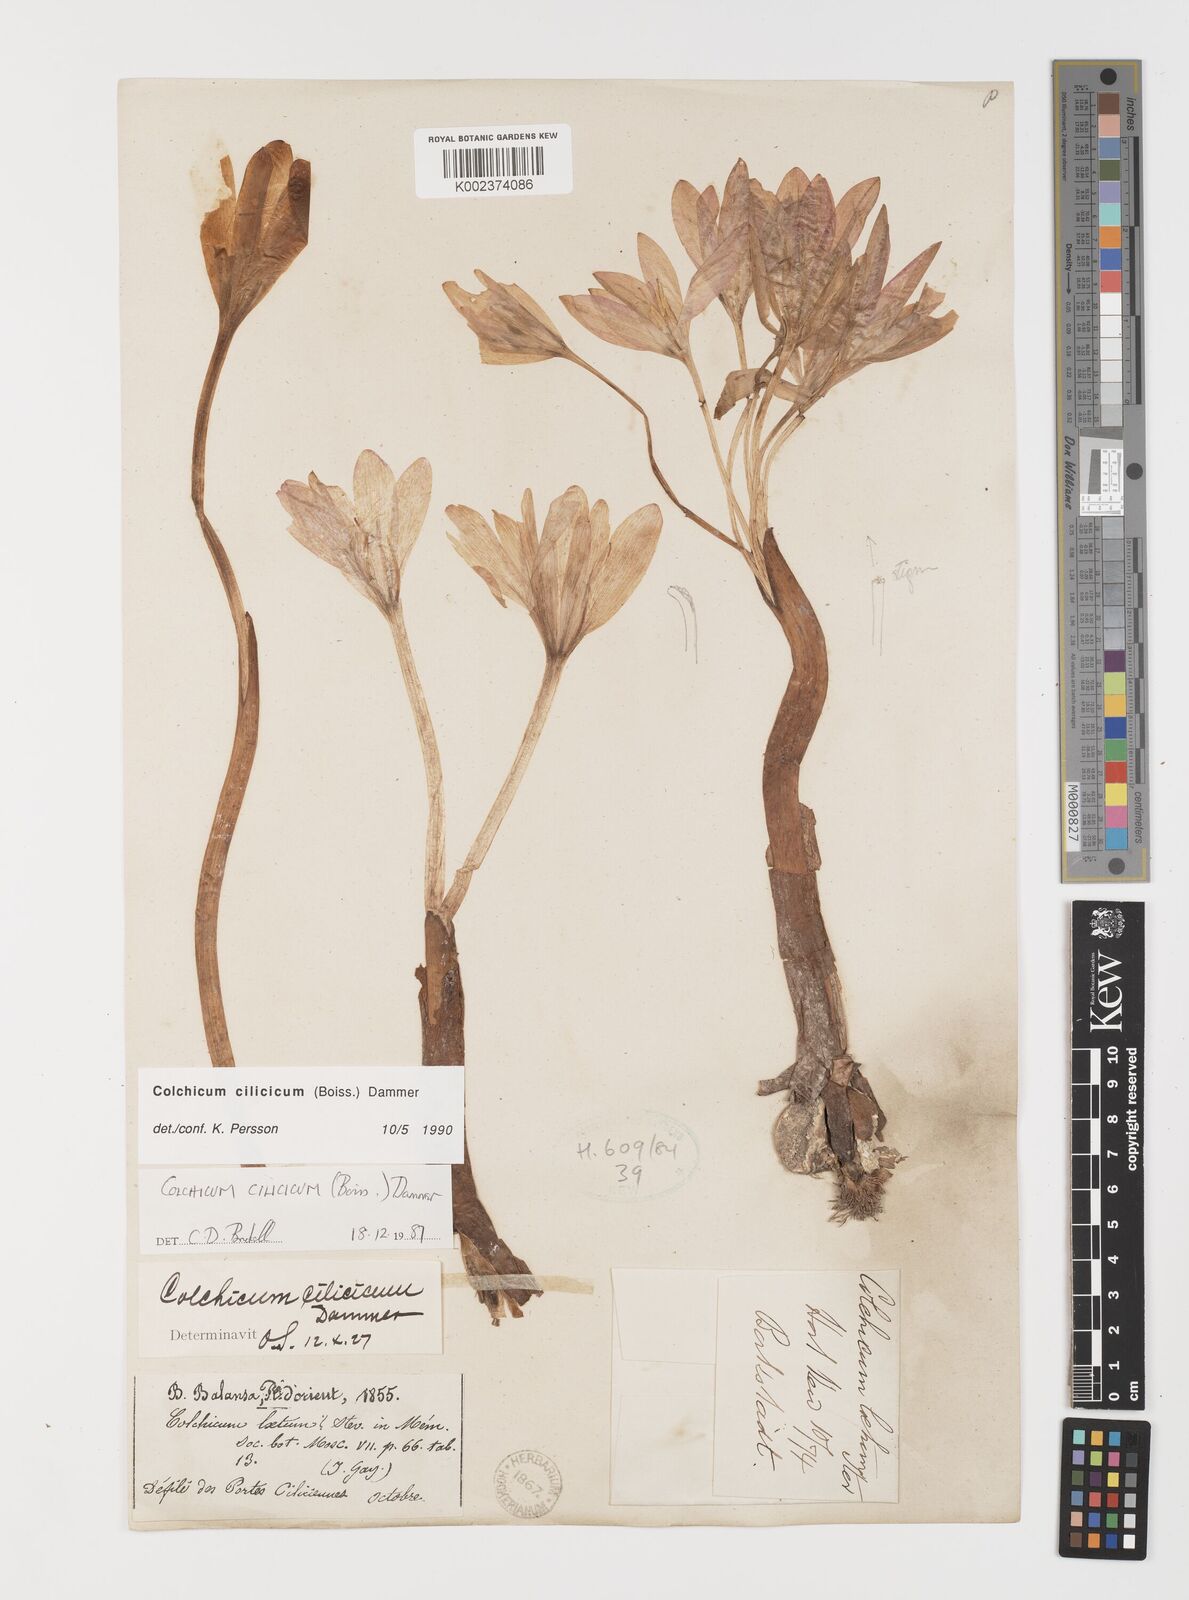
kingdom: Plantae
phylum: Tracheophyta
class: Liliopsida
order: Liliales
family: Colchicaceae
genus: Colchicum
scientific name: Colchicum cilicicum
